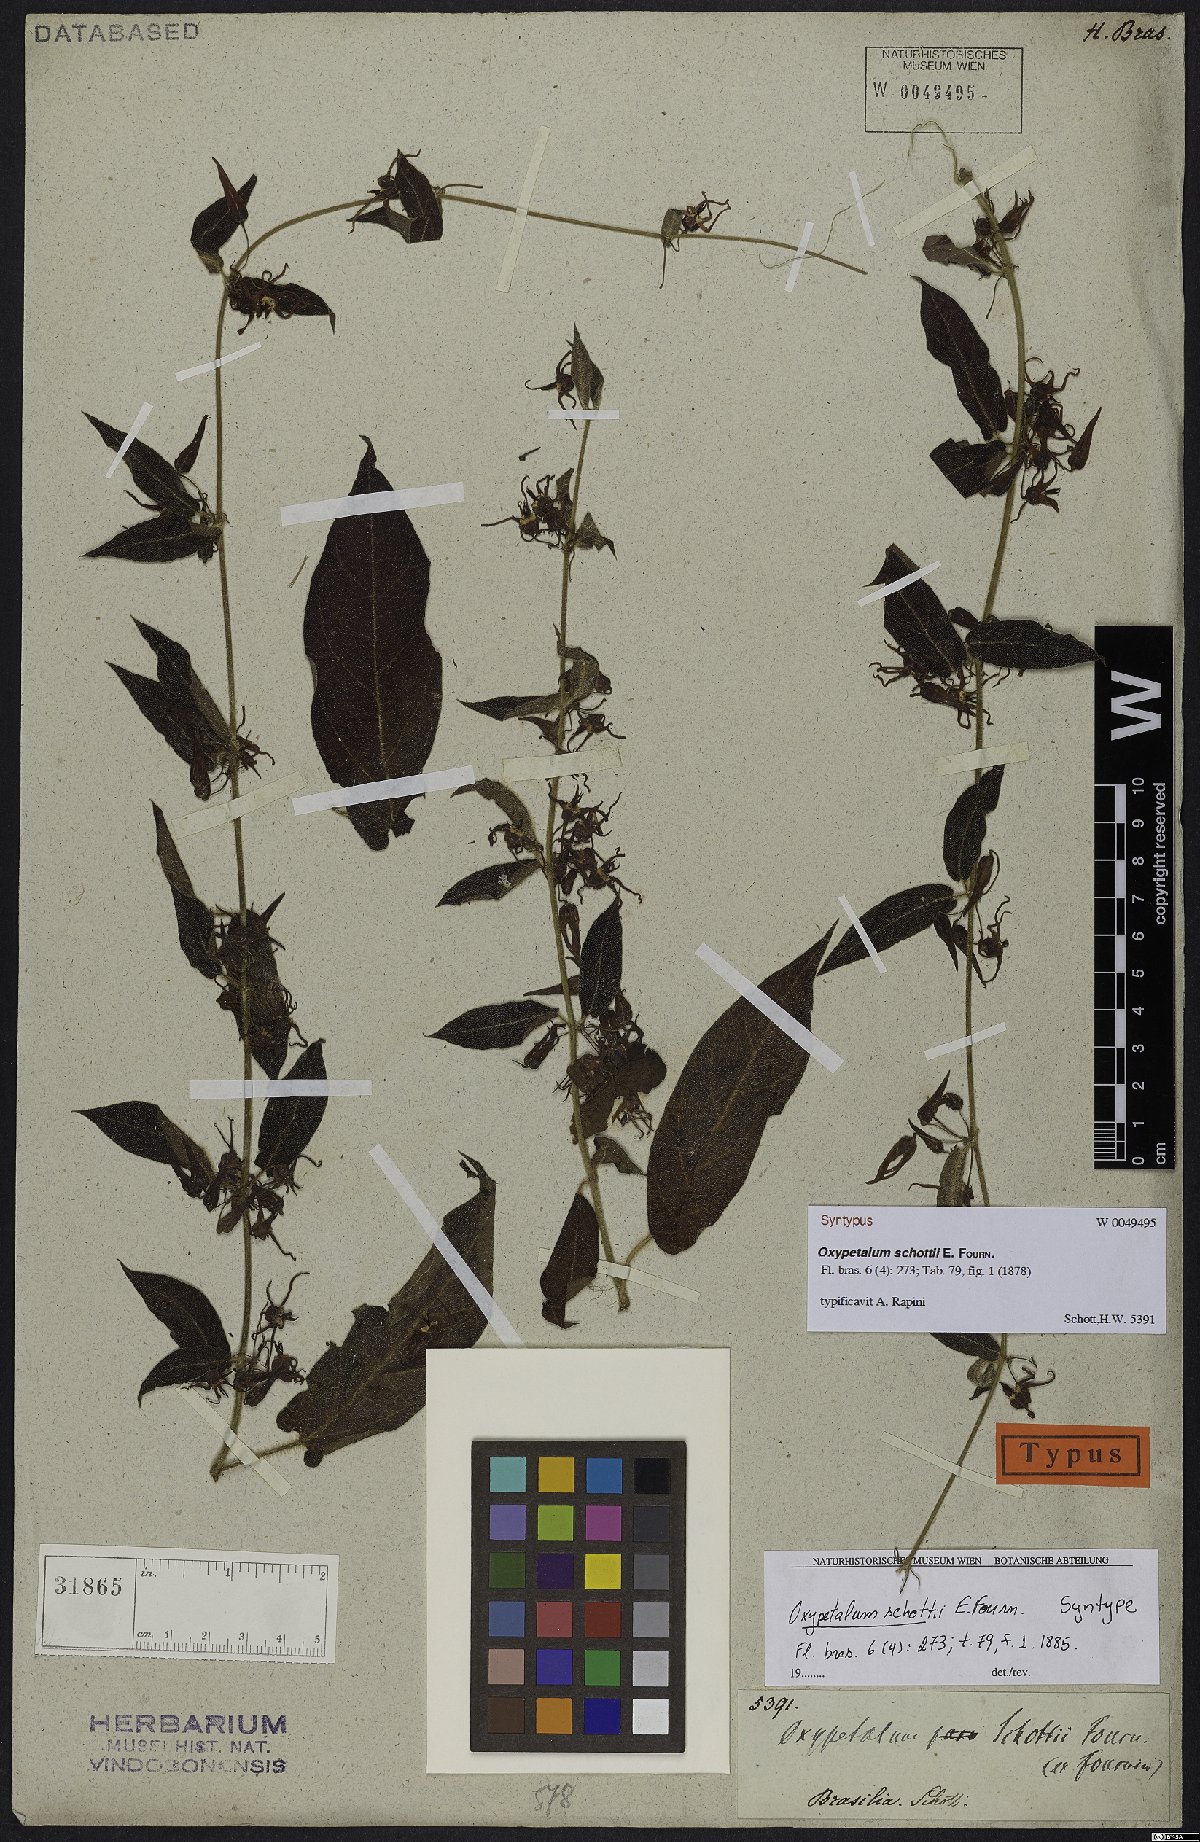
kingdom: Plantae
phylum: Tracheophyta
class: Magnoliopsida
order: Gentianales
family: Apocynaceae
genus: Oxypetalum
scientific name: Oxypetalum schottii
